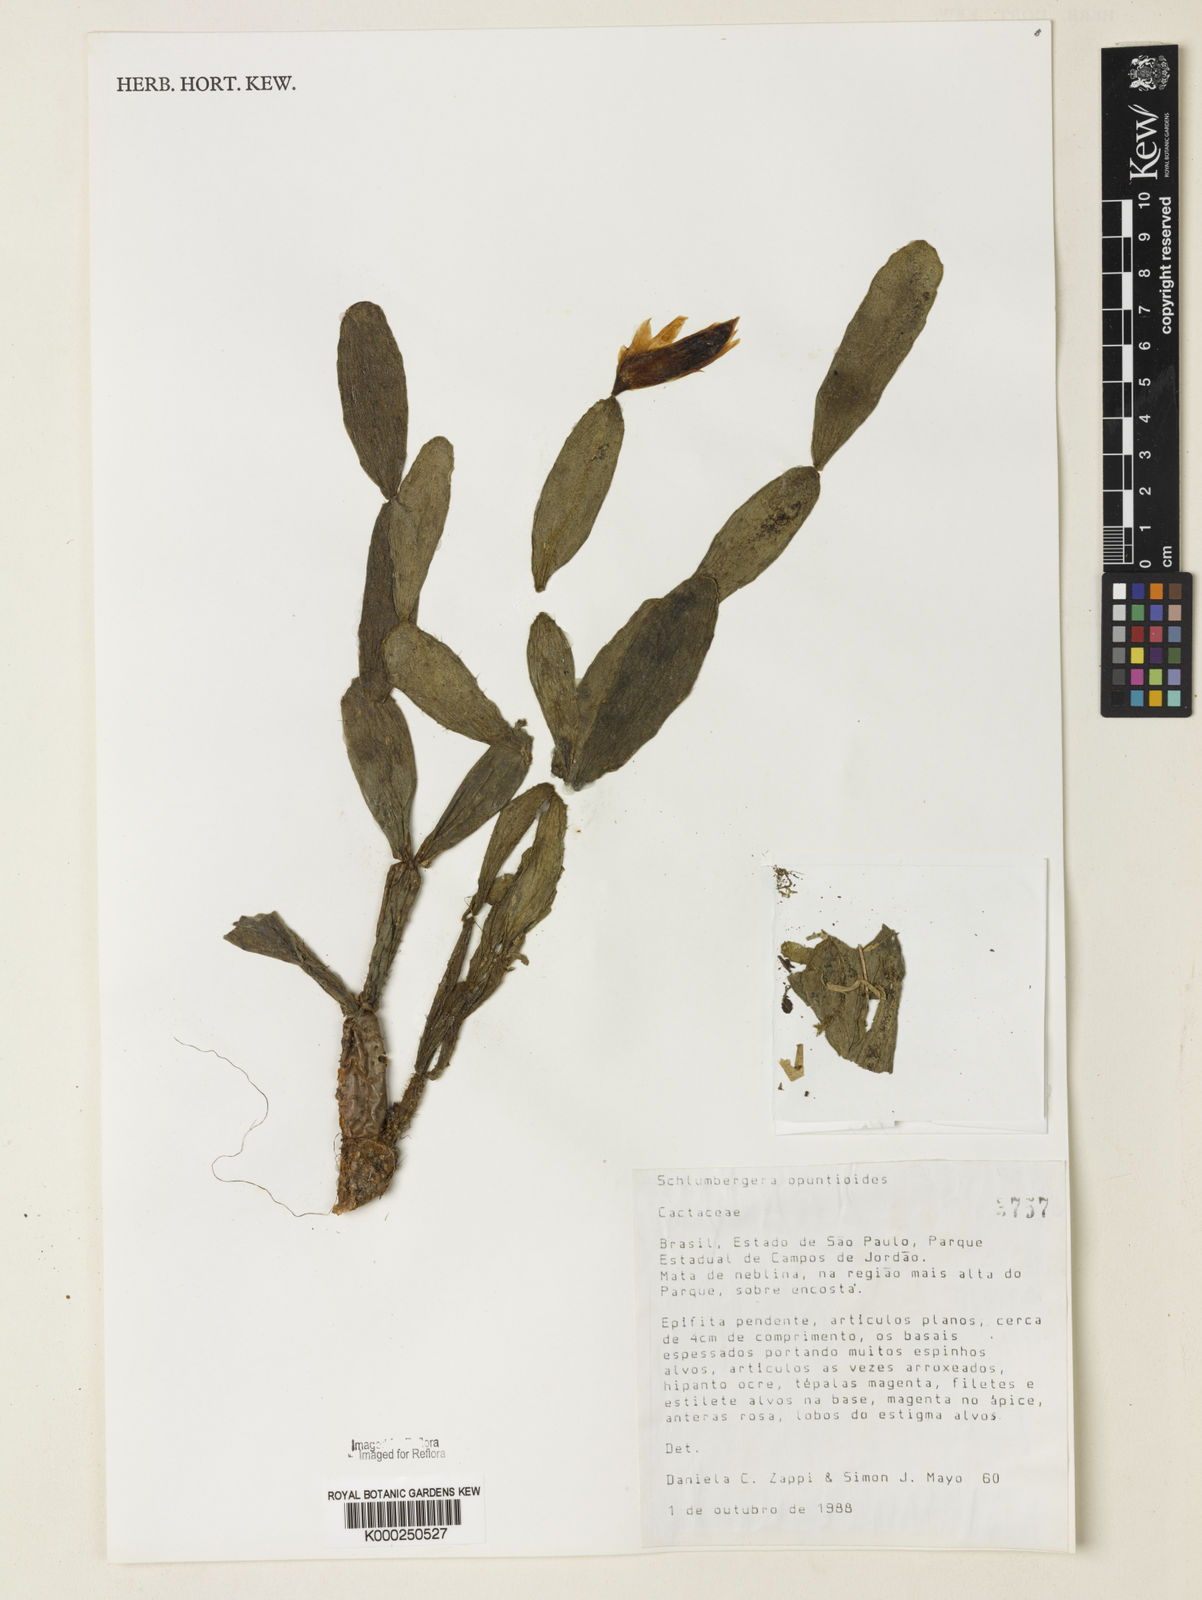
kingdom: Plantae
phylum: Tracheophyta
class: Magnoliopsida
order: Caryophyllales
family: Cactaceae
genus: Schlumbergera
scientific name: Schlumbergera opuntioides
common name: Christmas cactus
